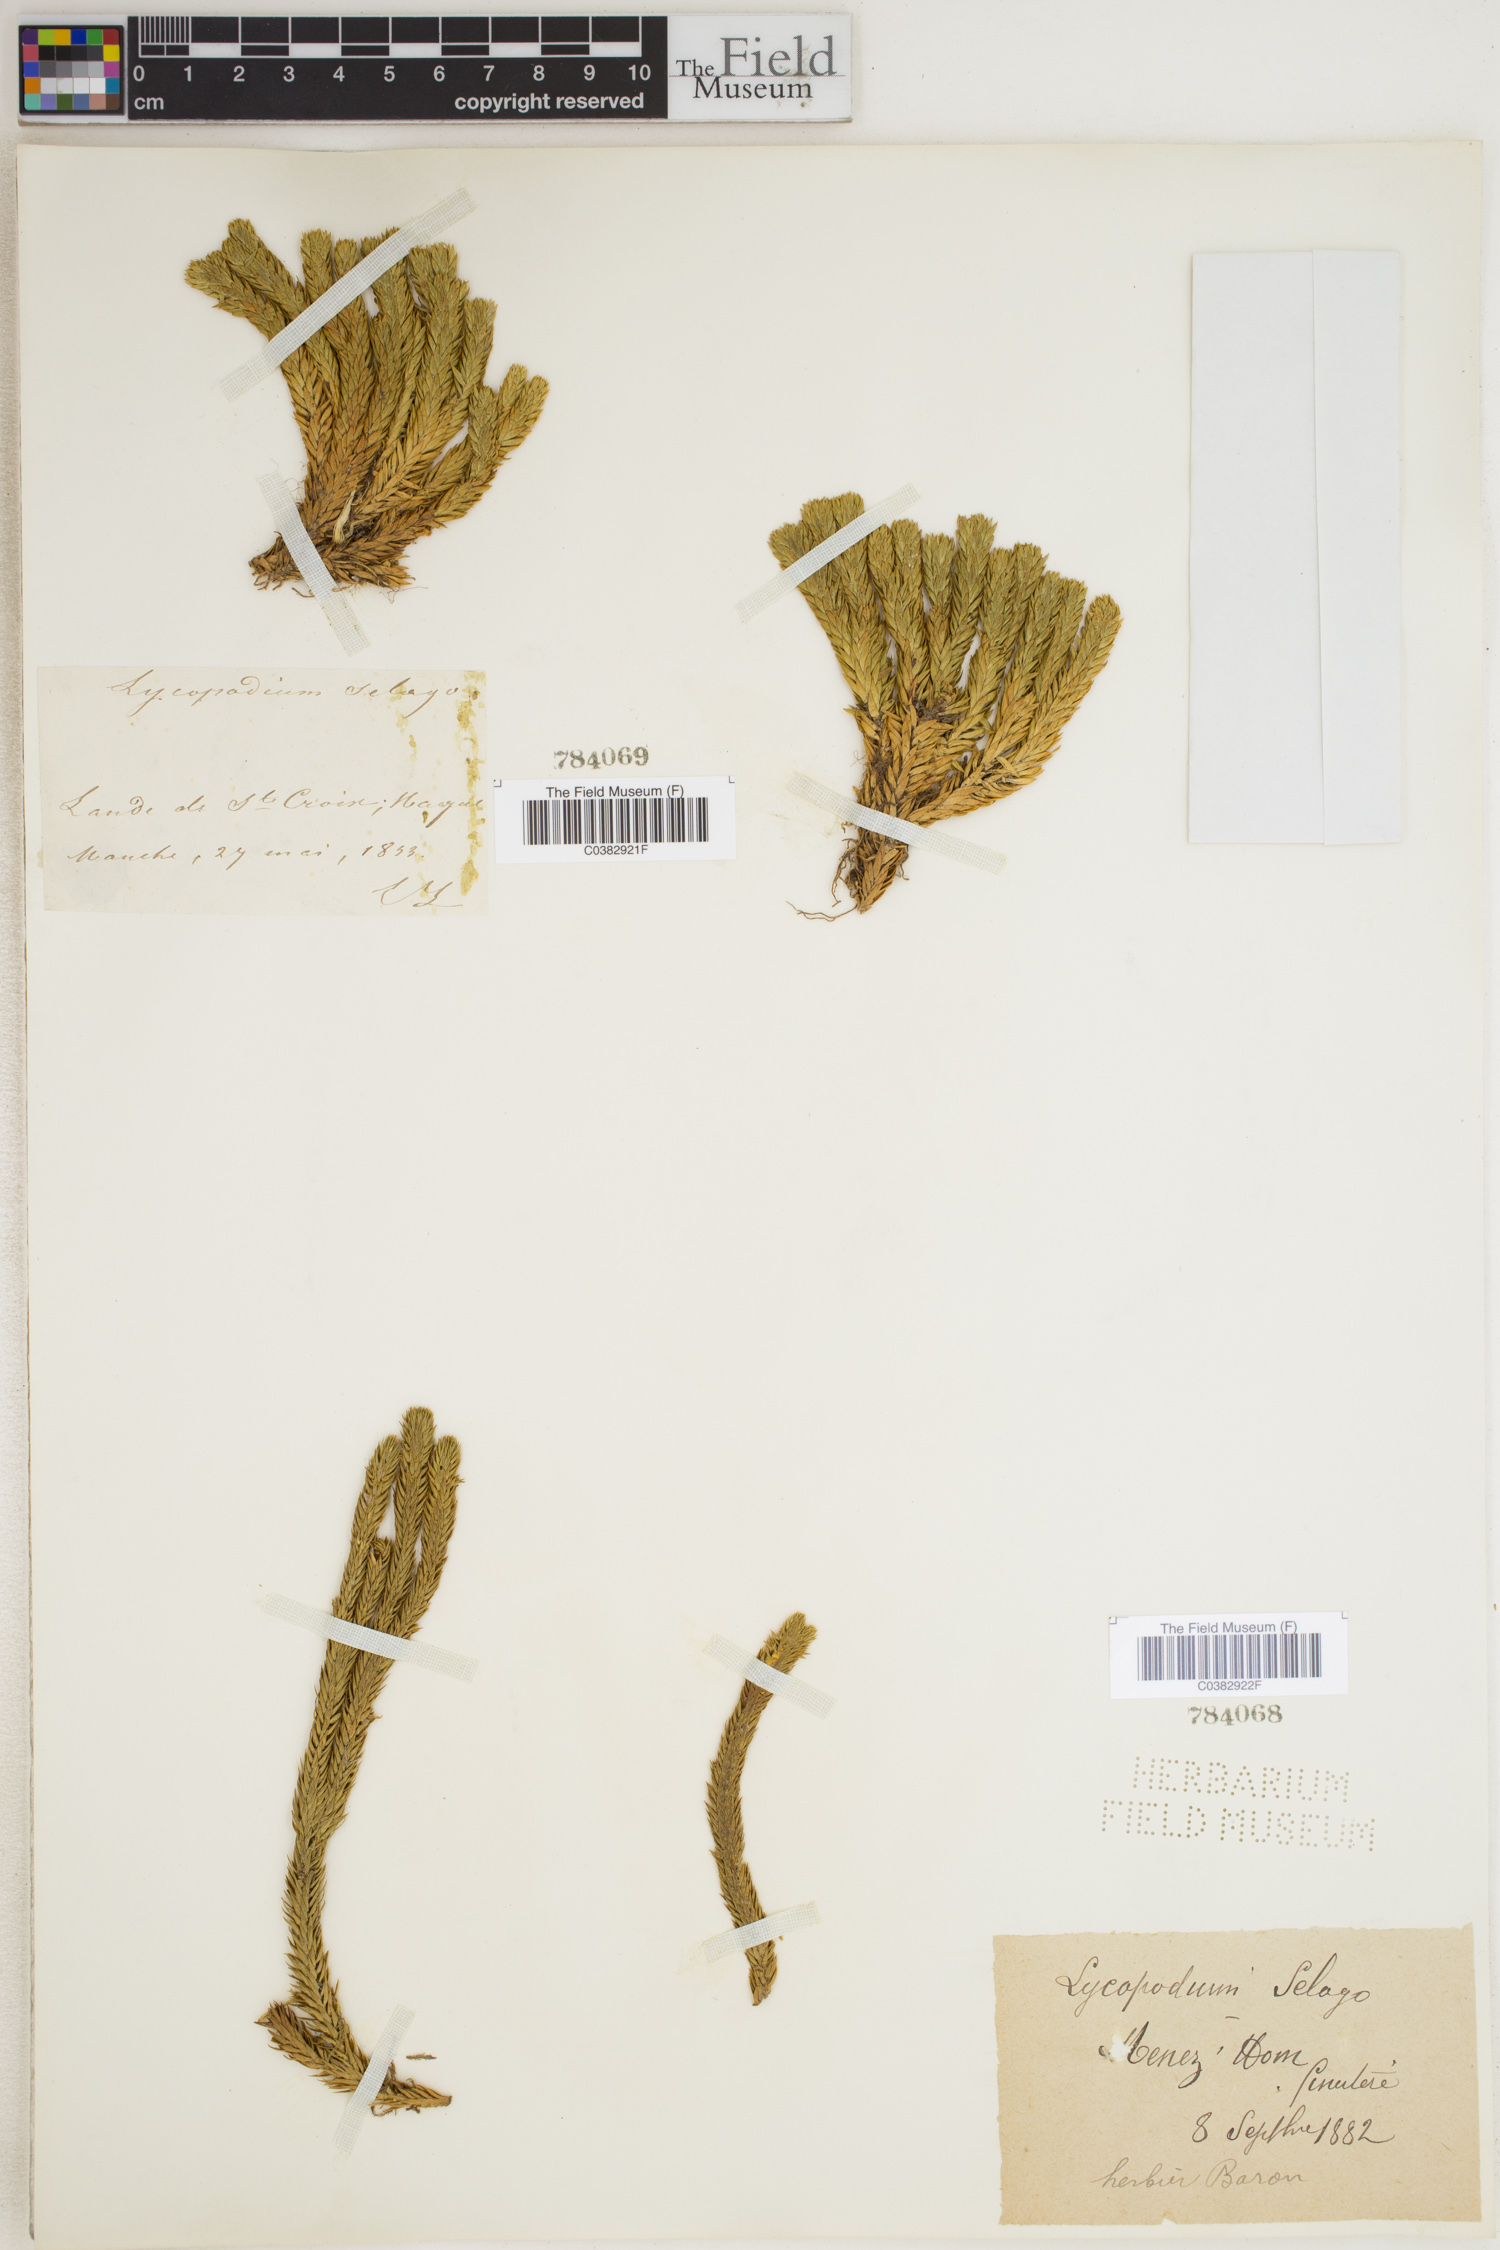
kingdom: Plantae
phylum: Tracheophyta
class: Lycopodiopsida
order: Lycopodiales
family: Lycopodiaceae
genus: Huperzia
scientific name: Huperzia selago
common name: Northern firmoss
